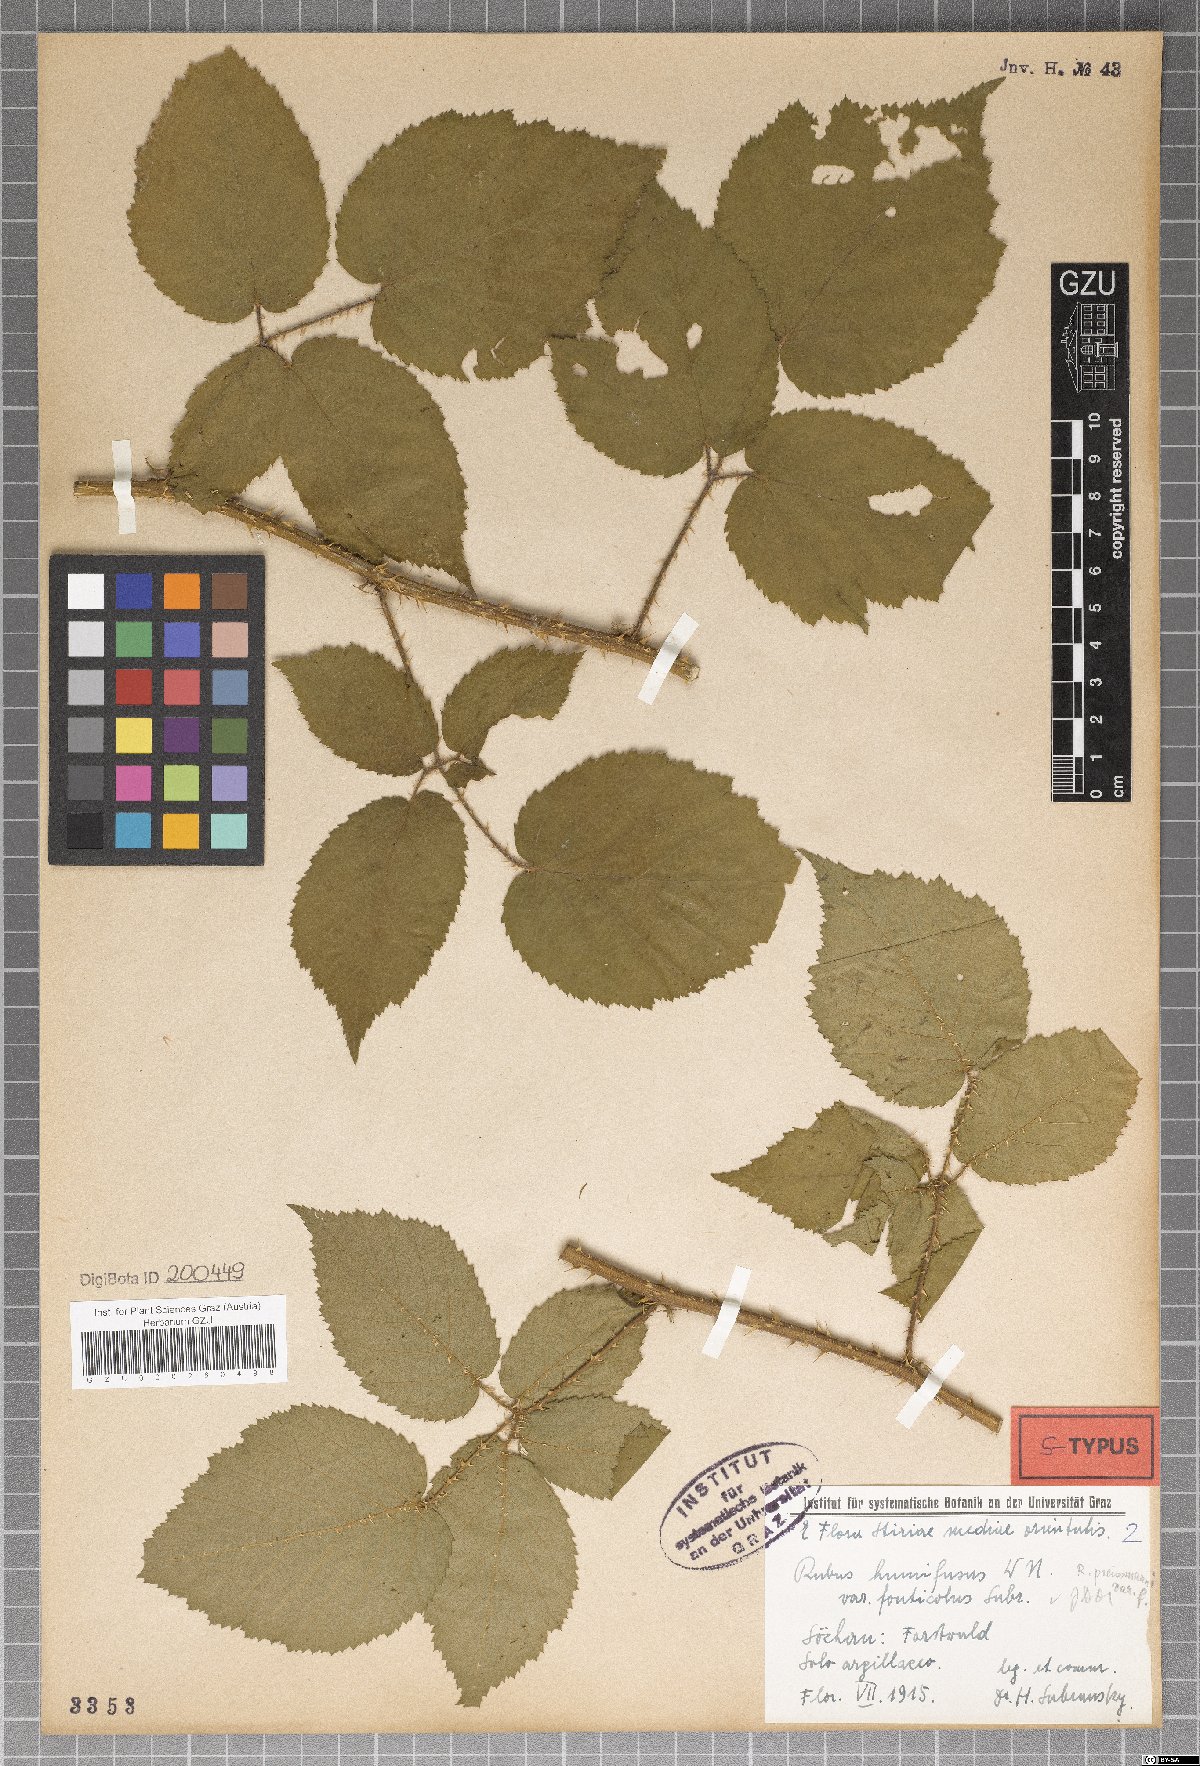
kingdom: Plantae
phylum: Tracheophyta
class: Magnoliopsida
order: Rosales
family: Rosaceae
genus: Rubus
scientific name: Rubus schleicheri
